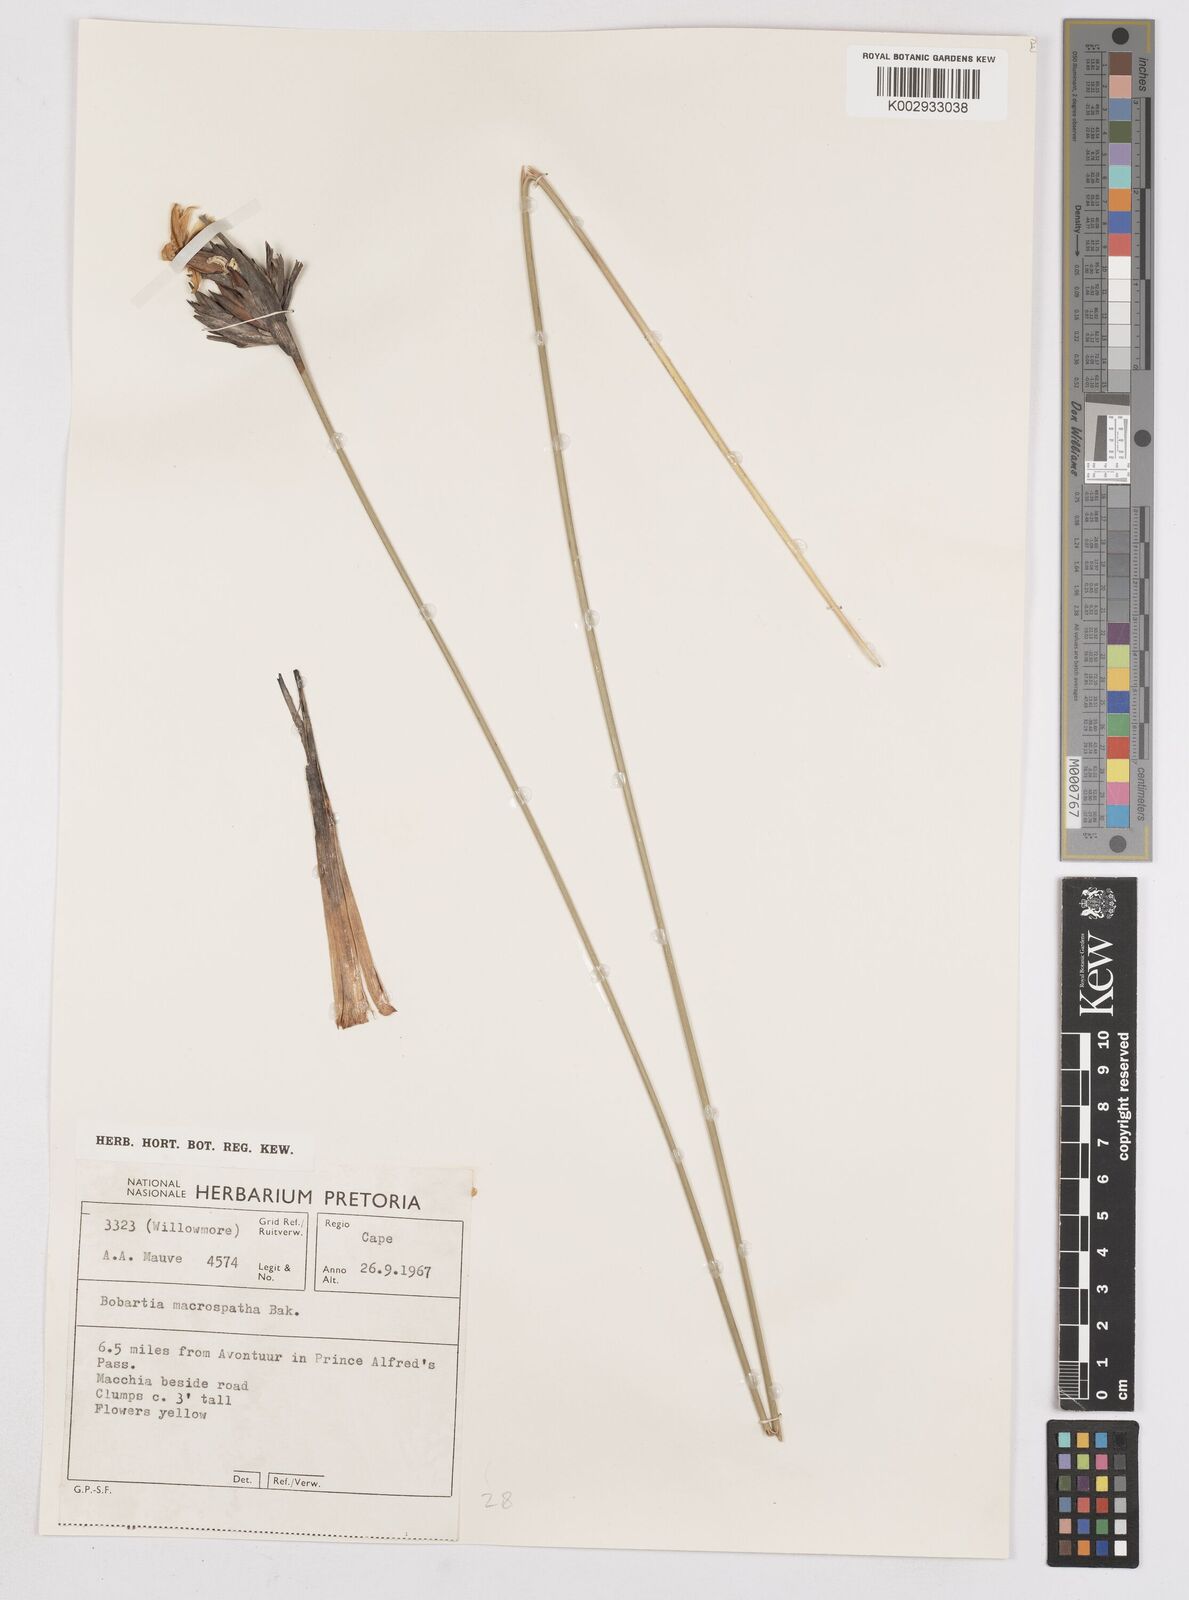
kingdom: Plantae
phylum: Tracheophyta
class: Liliopsida
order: Asparagales
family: Iridaceae
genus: Bobartia
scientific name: Bobartia macrospatha
